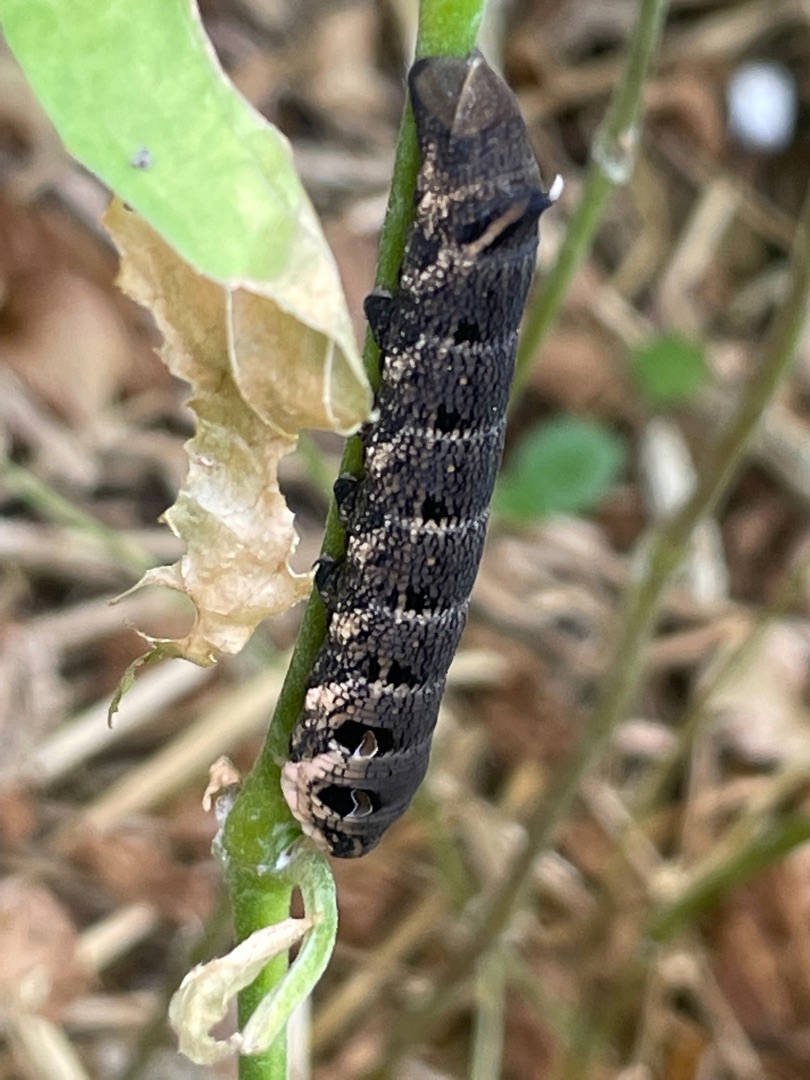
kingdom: Animalia
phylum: Arthropoda
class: Insecta
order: Lepidoptera
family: Sphingidae
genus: Deilephila
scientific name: Deilephila elpenor
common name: Dueurtsværmer
